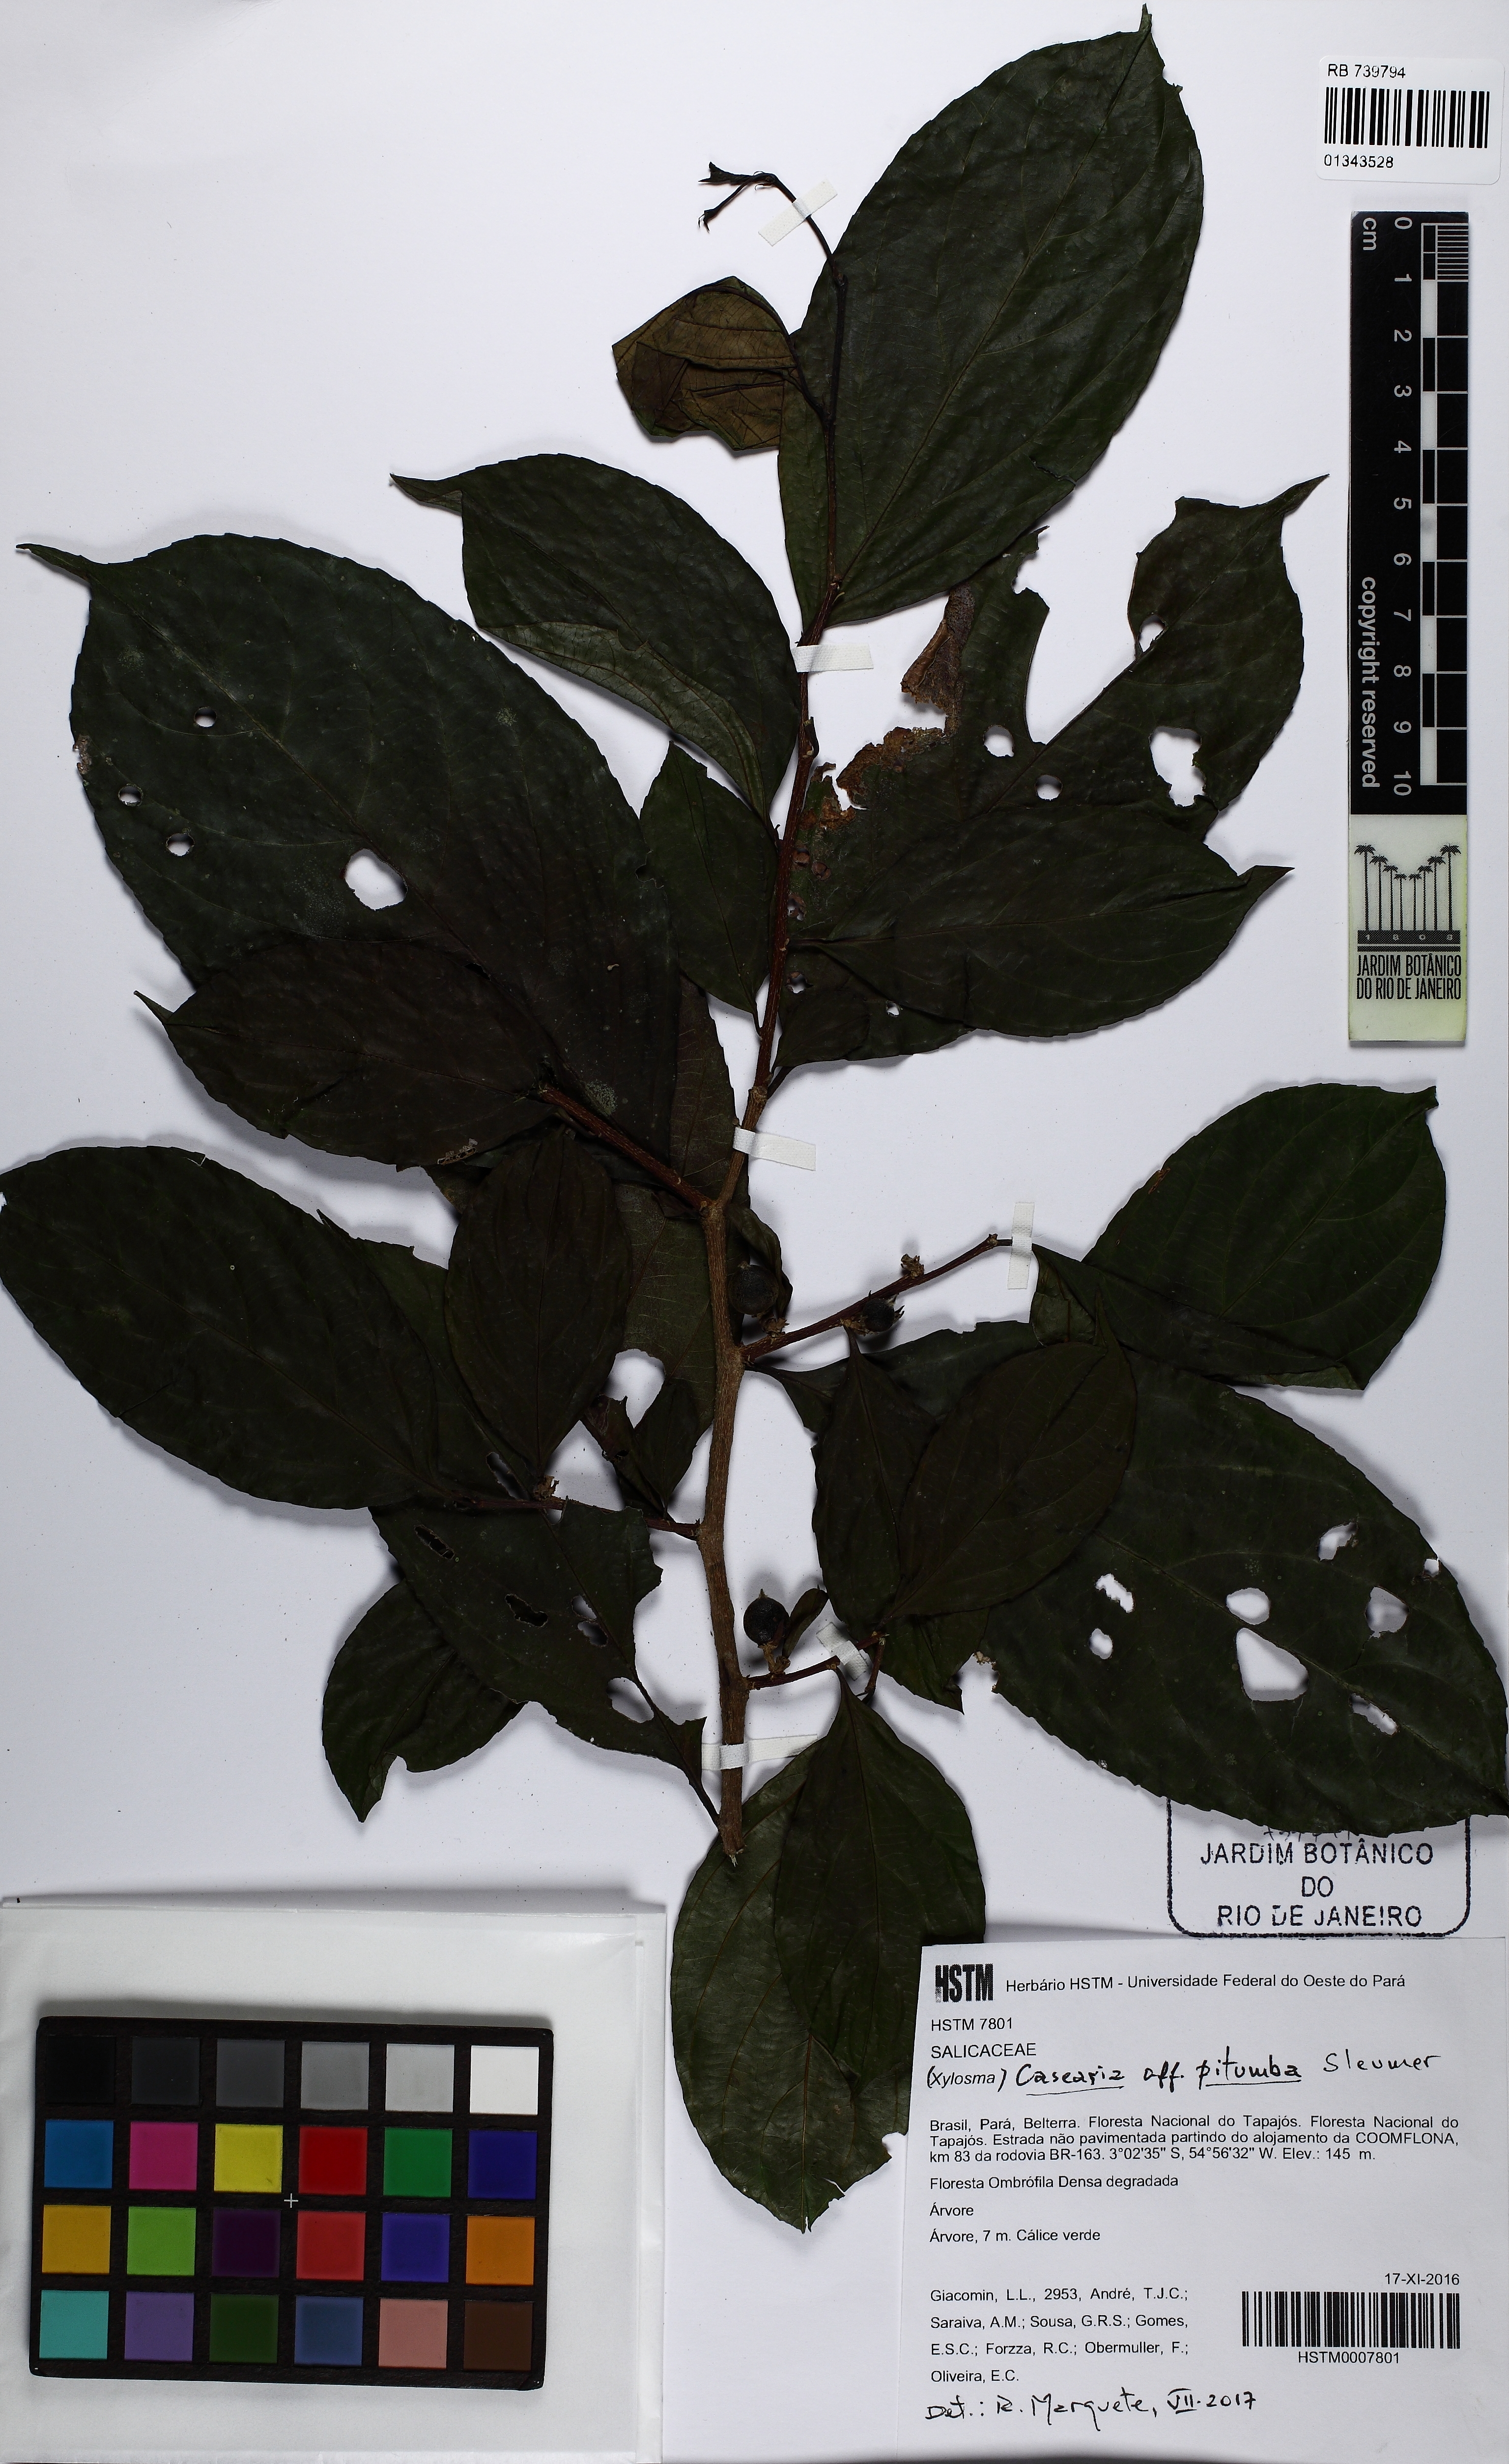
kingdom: Plantae
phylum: Tracheophyta
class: Magnoliopsida
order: Malpighiales
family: Salicaceae
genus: Casearia
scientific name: Casearia pitumba
